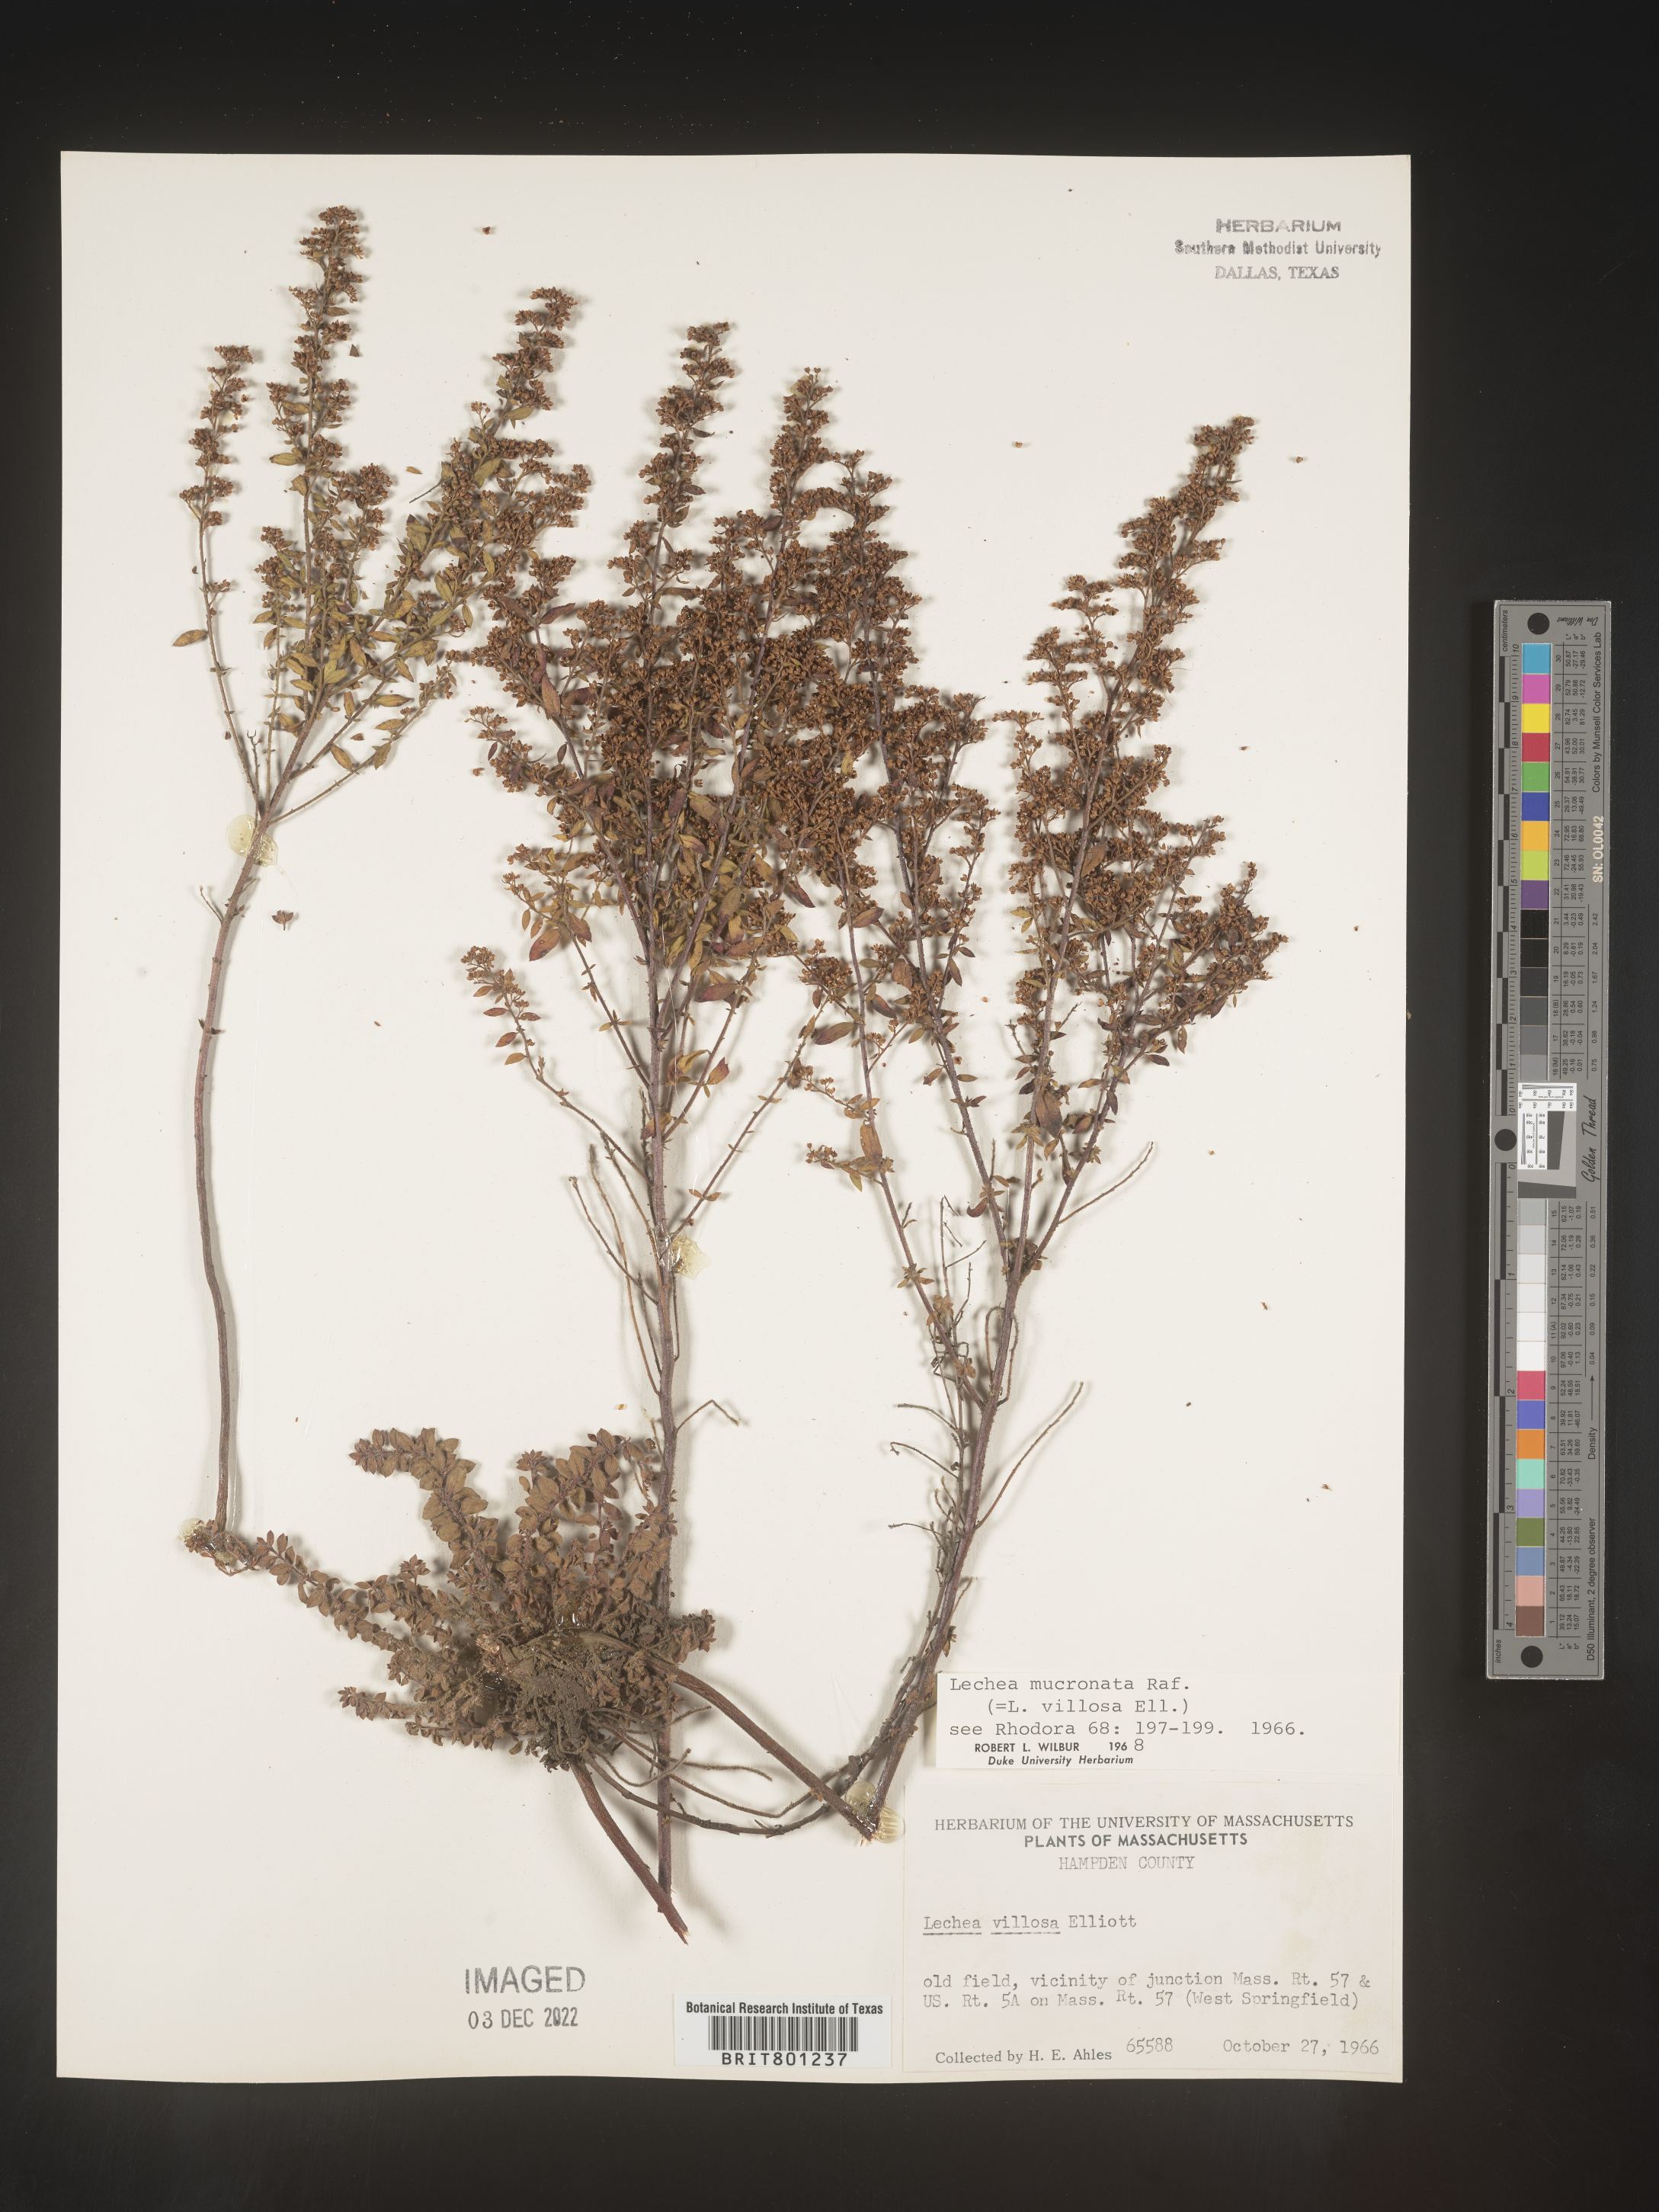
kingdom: Plantae
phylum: Tracheophyta
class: Magnoliopsida
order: Malvales
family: Cistaceae
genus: Lechea
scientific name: Lechea mucronata
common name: Hairy pinweed
